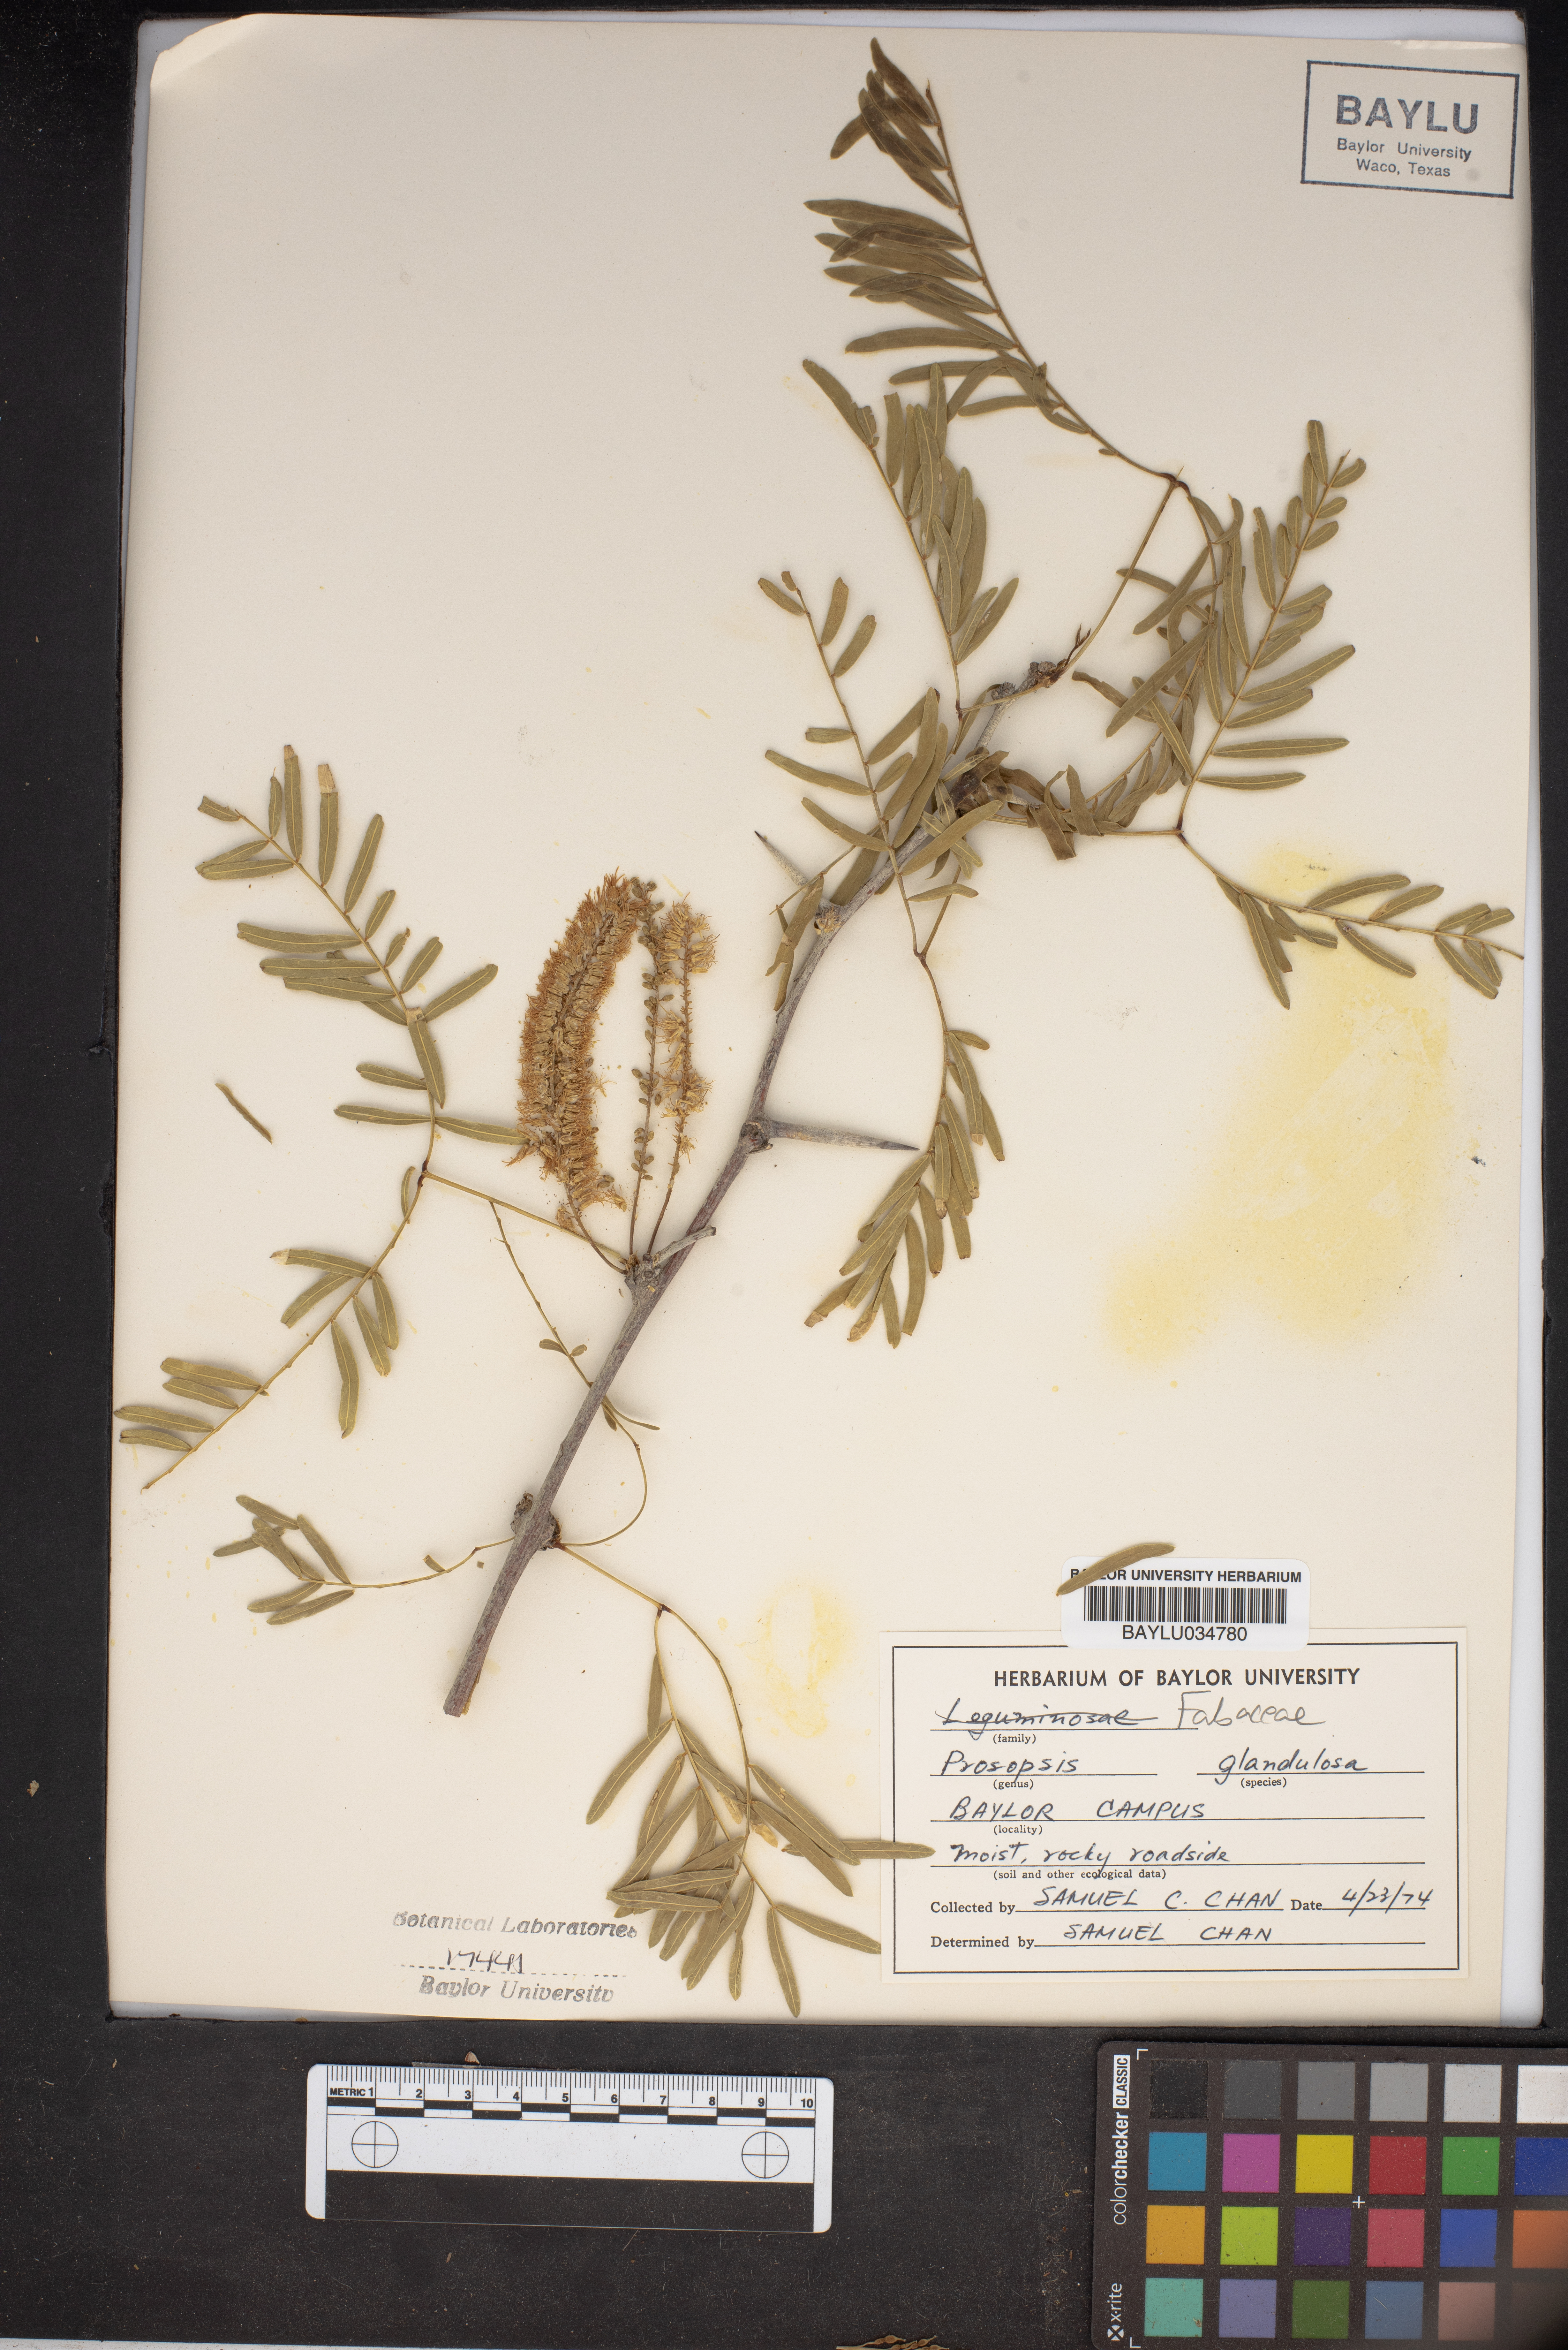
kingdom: Plantae
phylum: Tracheophyta
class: Magnoliopsida
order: Fabales
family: Fabaceae
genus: Prosopis
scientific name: Prosopis glandulosa
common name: Honey mesquite
